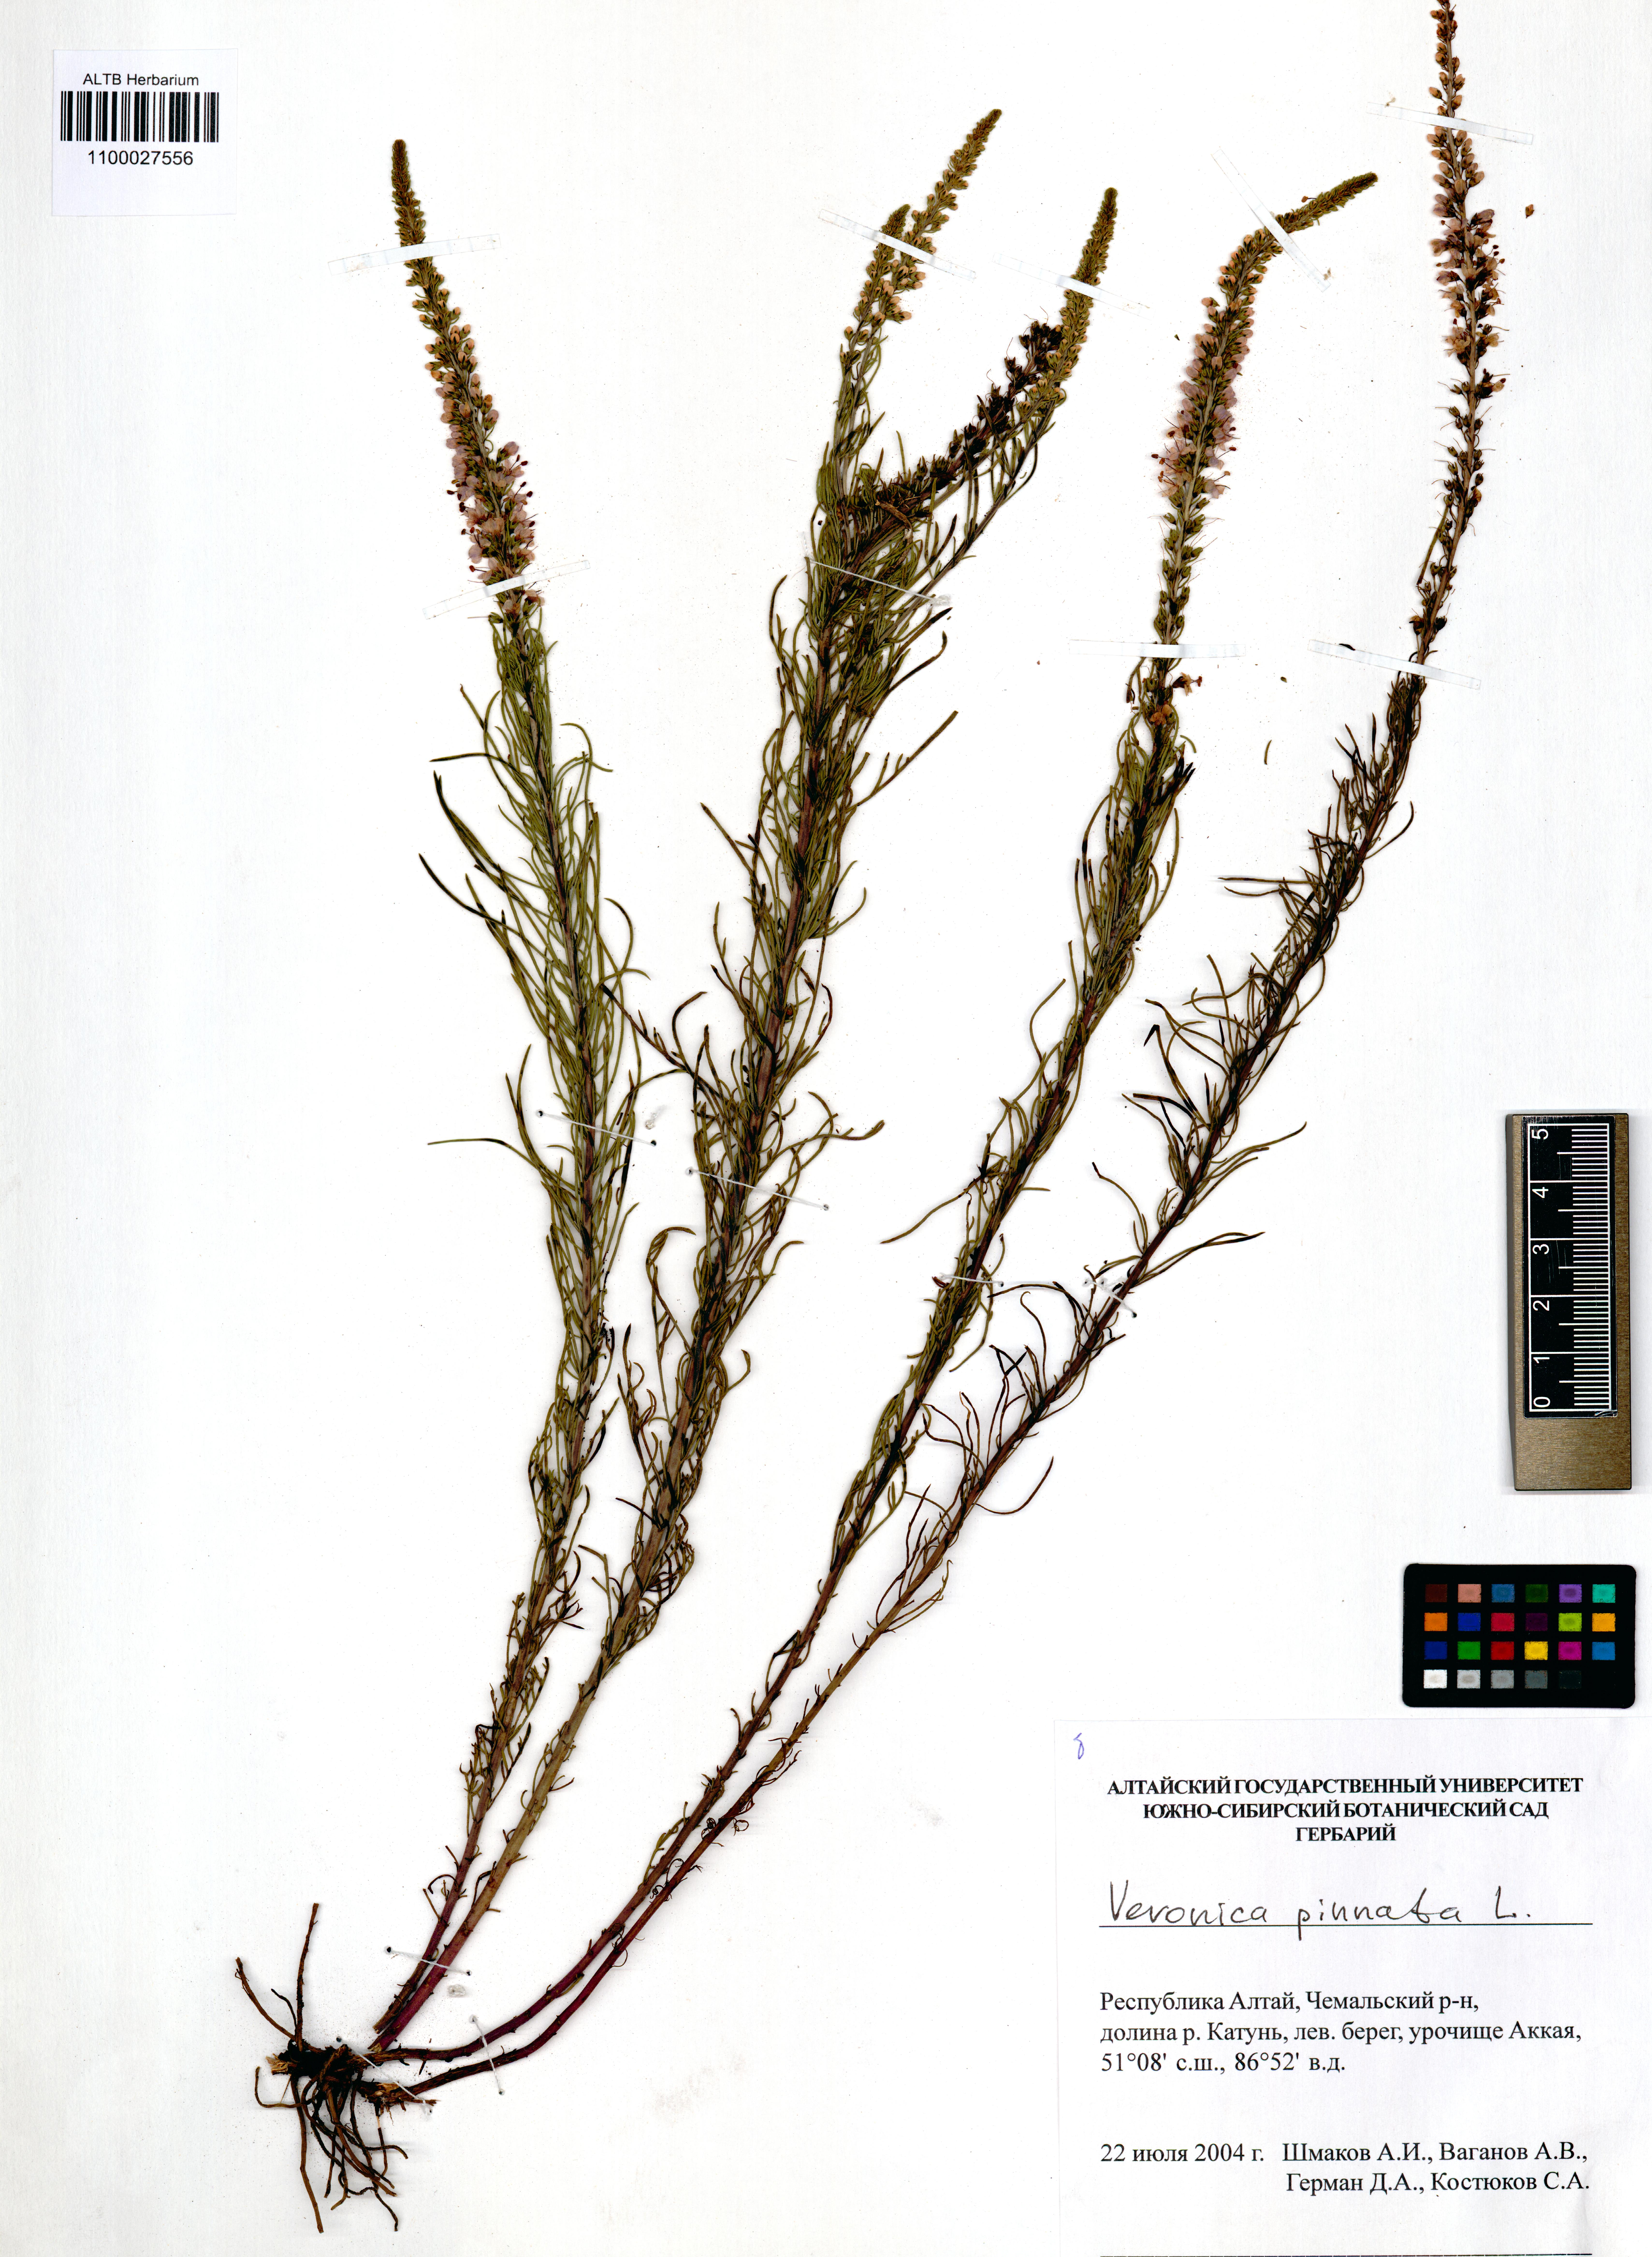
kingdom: Plantae
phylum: Tracheophyta
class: Magnoliopsida
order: Lamiales
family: Plantaginaceae
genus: Veronica
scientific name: Veronica pinnata
